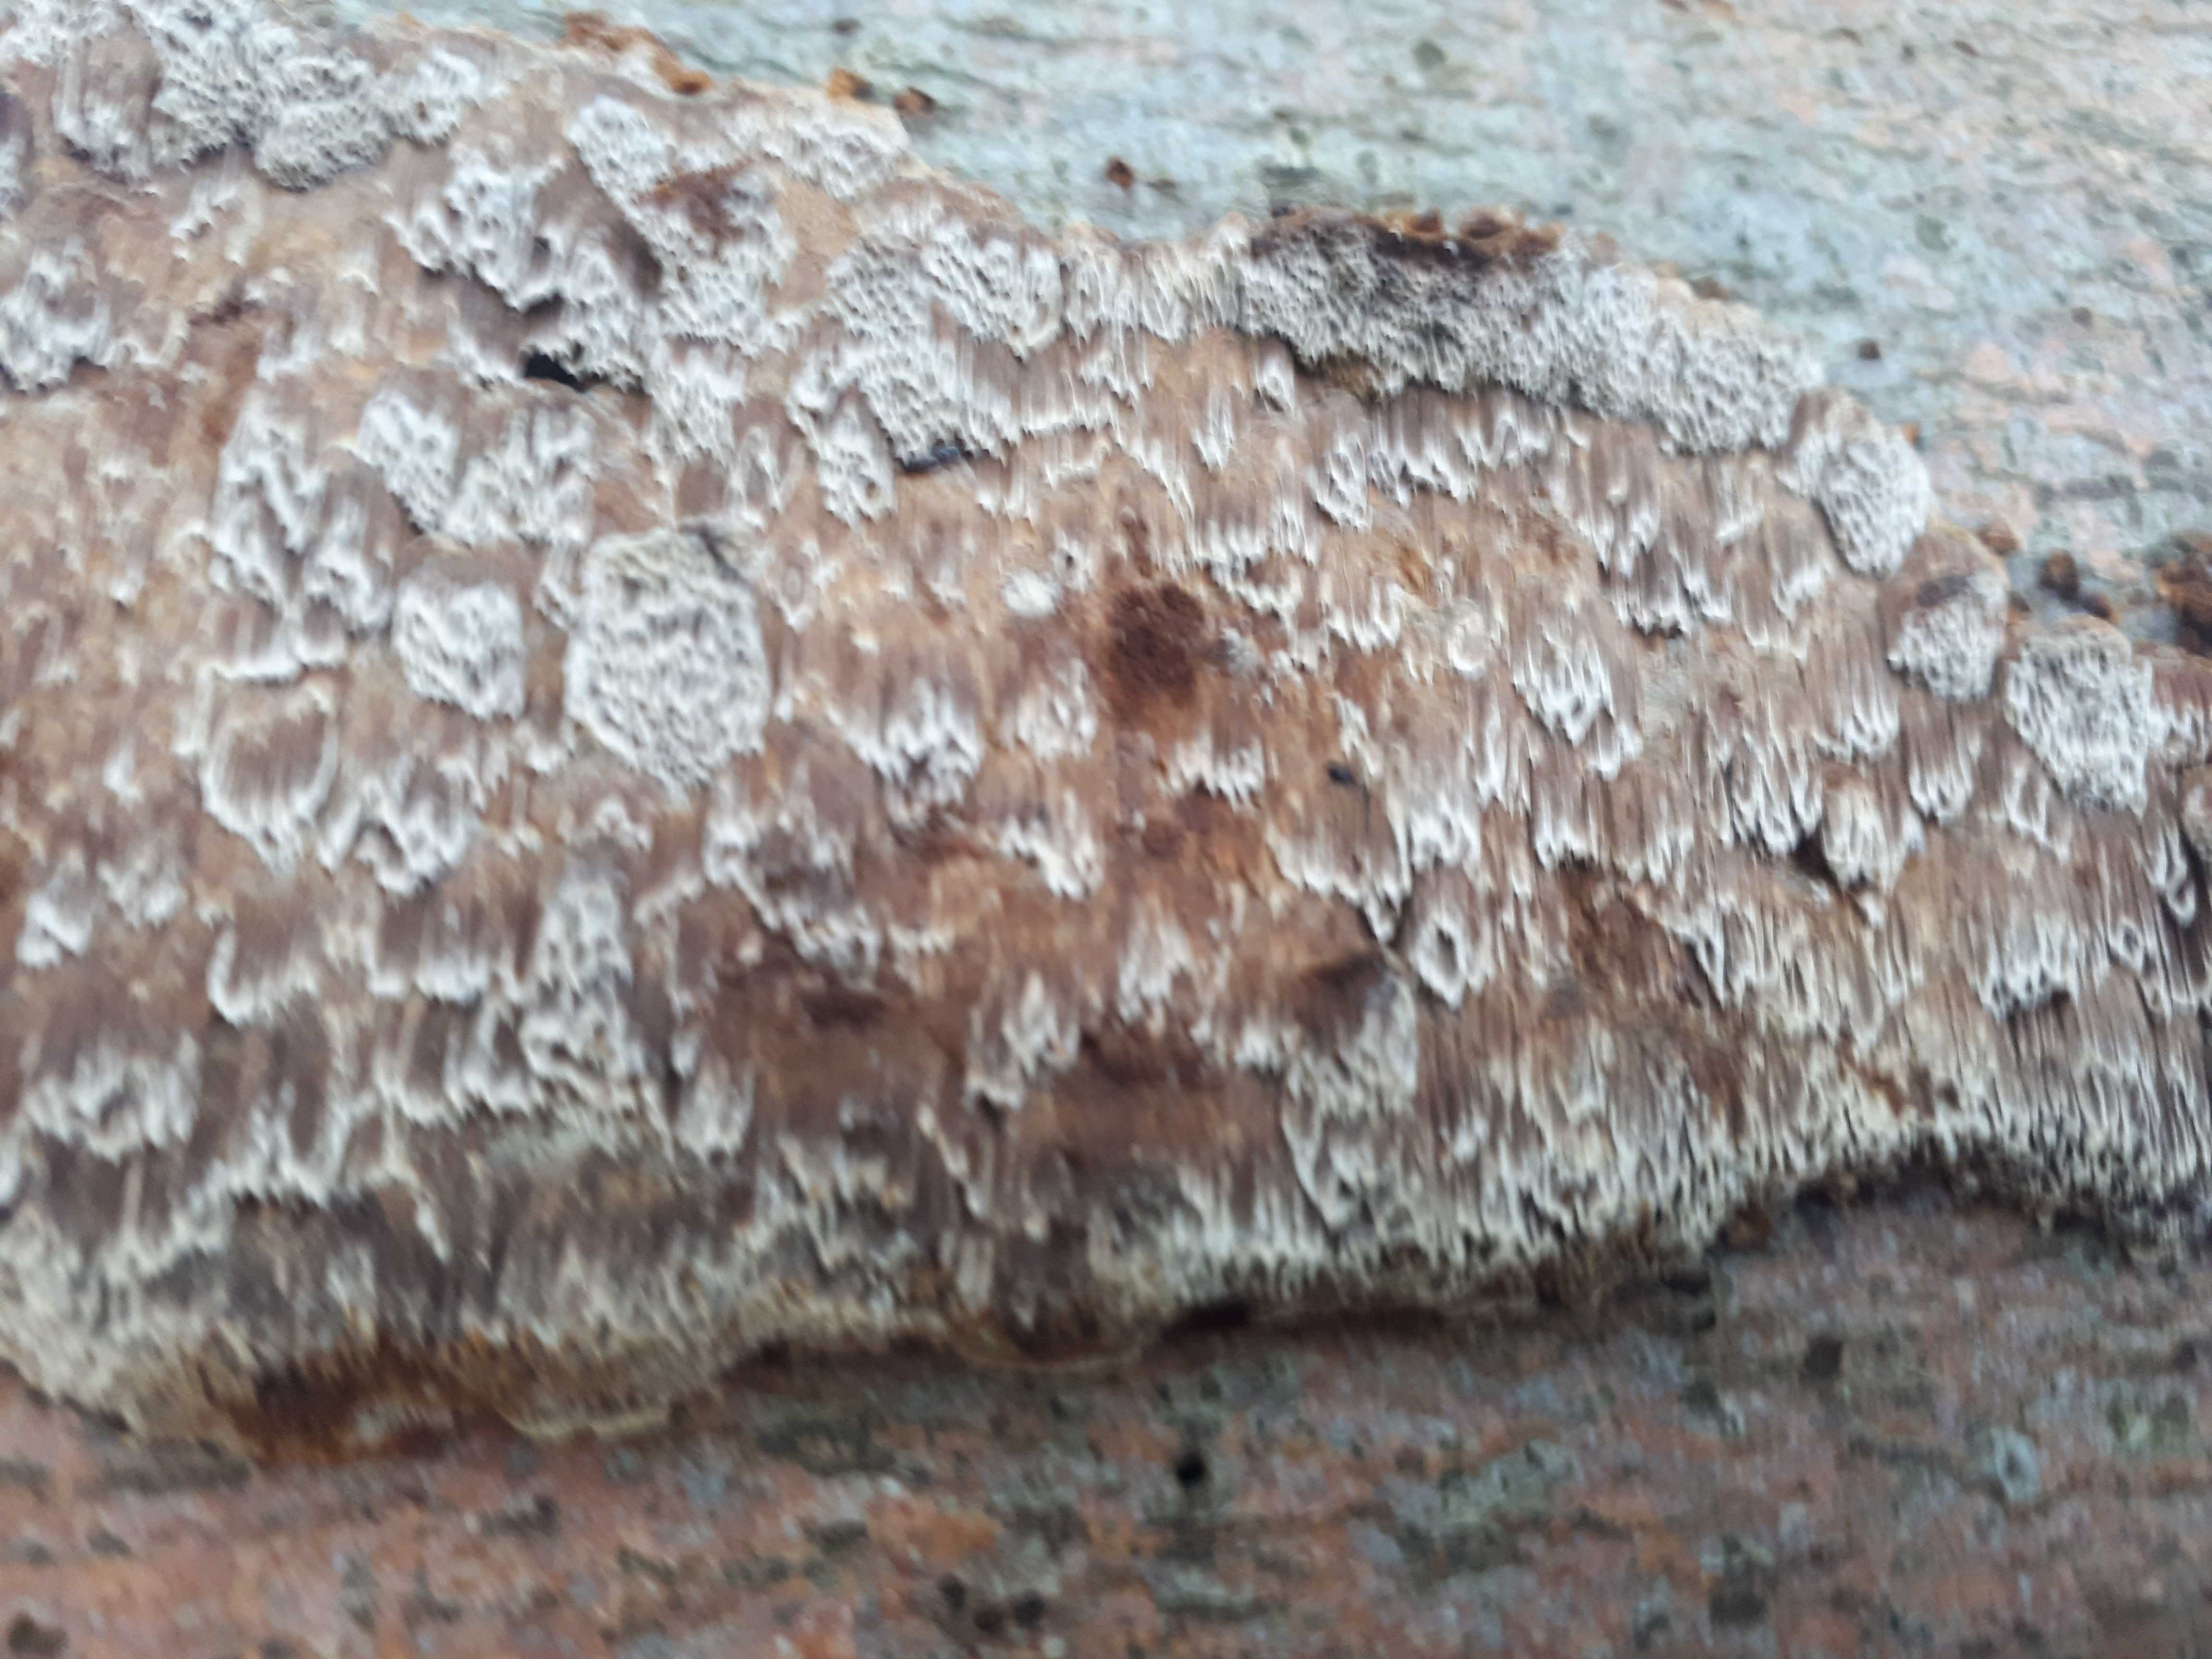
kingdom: Fungi
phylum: Basidiomycota
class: Agaricomycetes
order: Hymenochaetales
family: Hymenochaetaceae
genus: Mensularia
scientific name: Mensularia nodulosa
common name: bøge-spejlporesvamp
